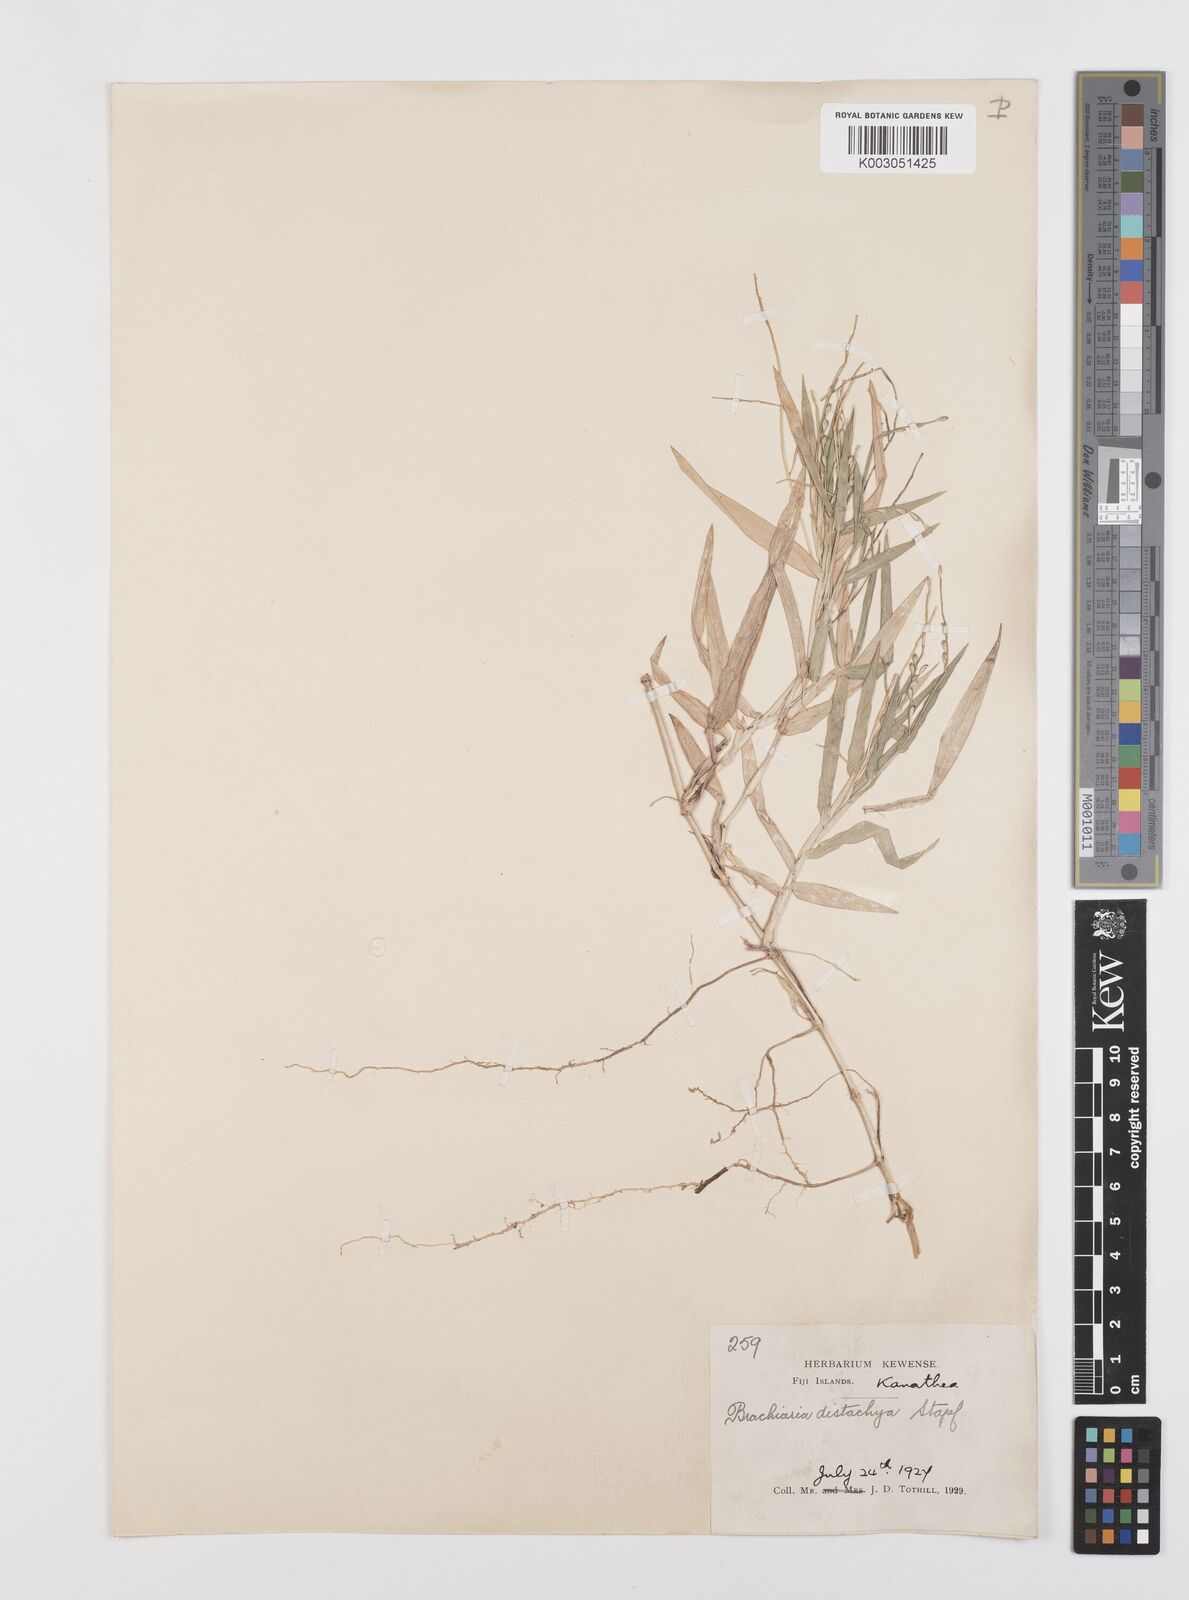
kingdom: Plantae
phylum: Tracheophyta
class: Liliopsida
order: Poales
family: Poaceae
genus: Urochloa
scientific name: Urochloa subquadripara
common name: Armgrass millet
